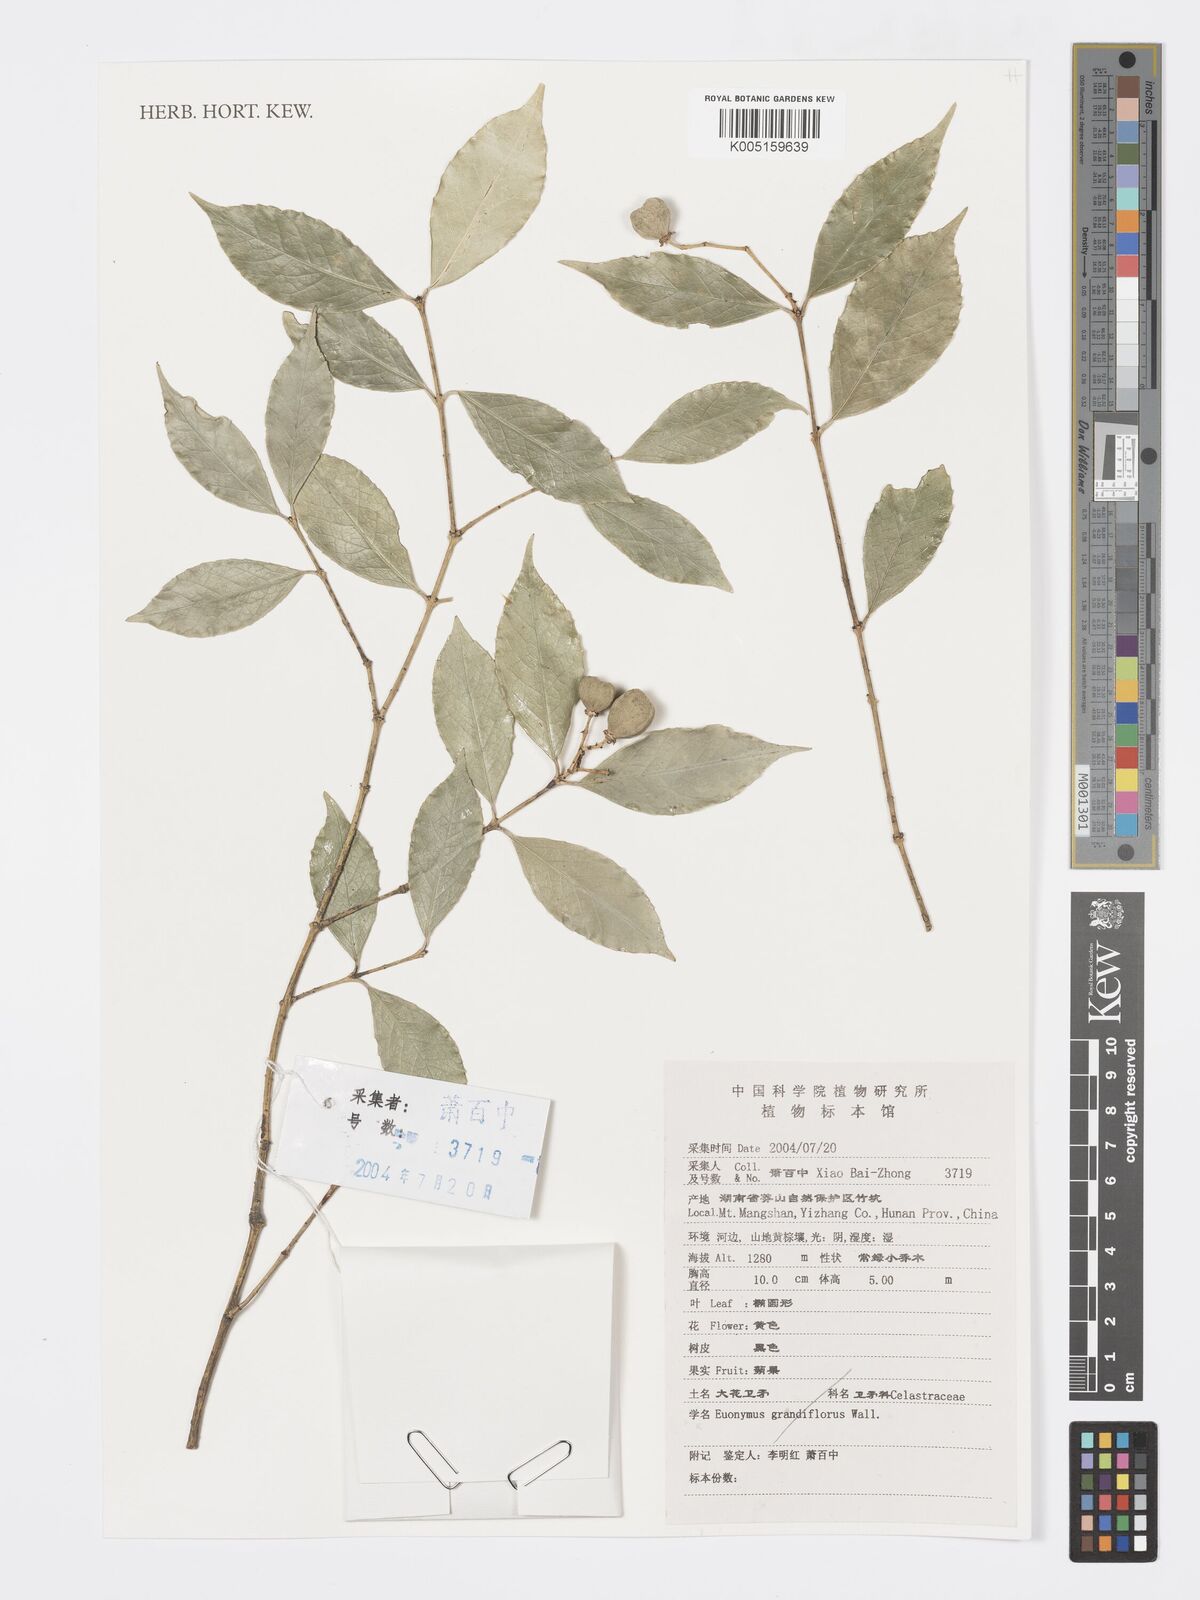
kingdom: Plantae
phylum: Tracheophyta
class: Magnoliopsida
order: Celastrales
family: Celastraceae
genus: Euonymus
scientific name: Euonymus grandiflorus
